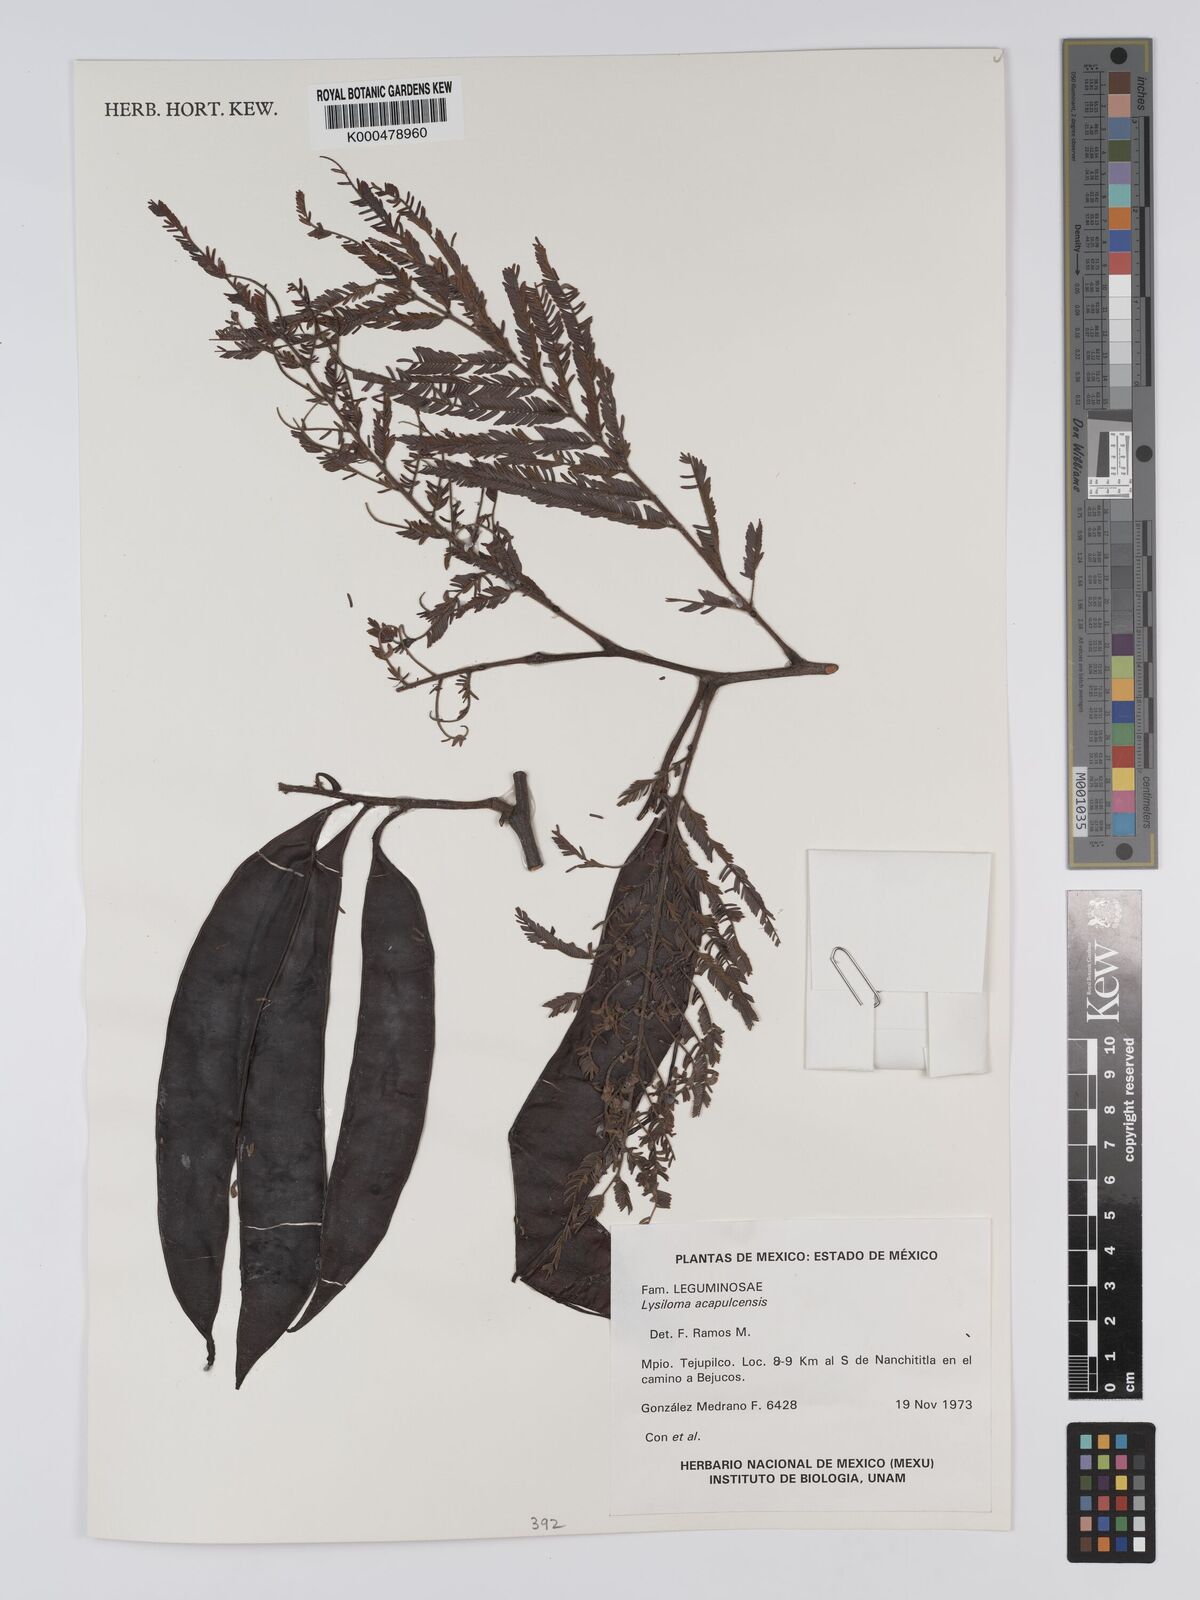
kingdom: Plantae
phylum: Tracheophyta
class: Magnoliopsida
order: Fabales
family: Fabaceae
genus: Lysiloma
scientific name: Lysiloma
